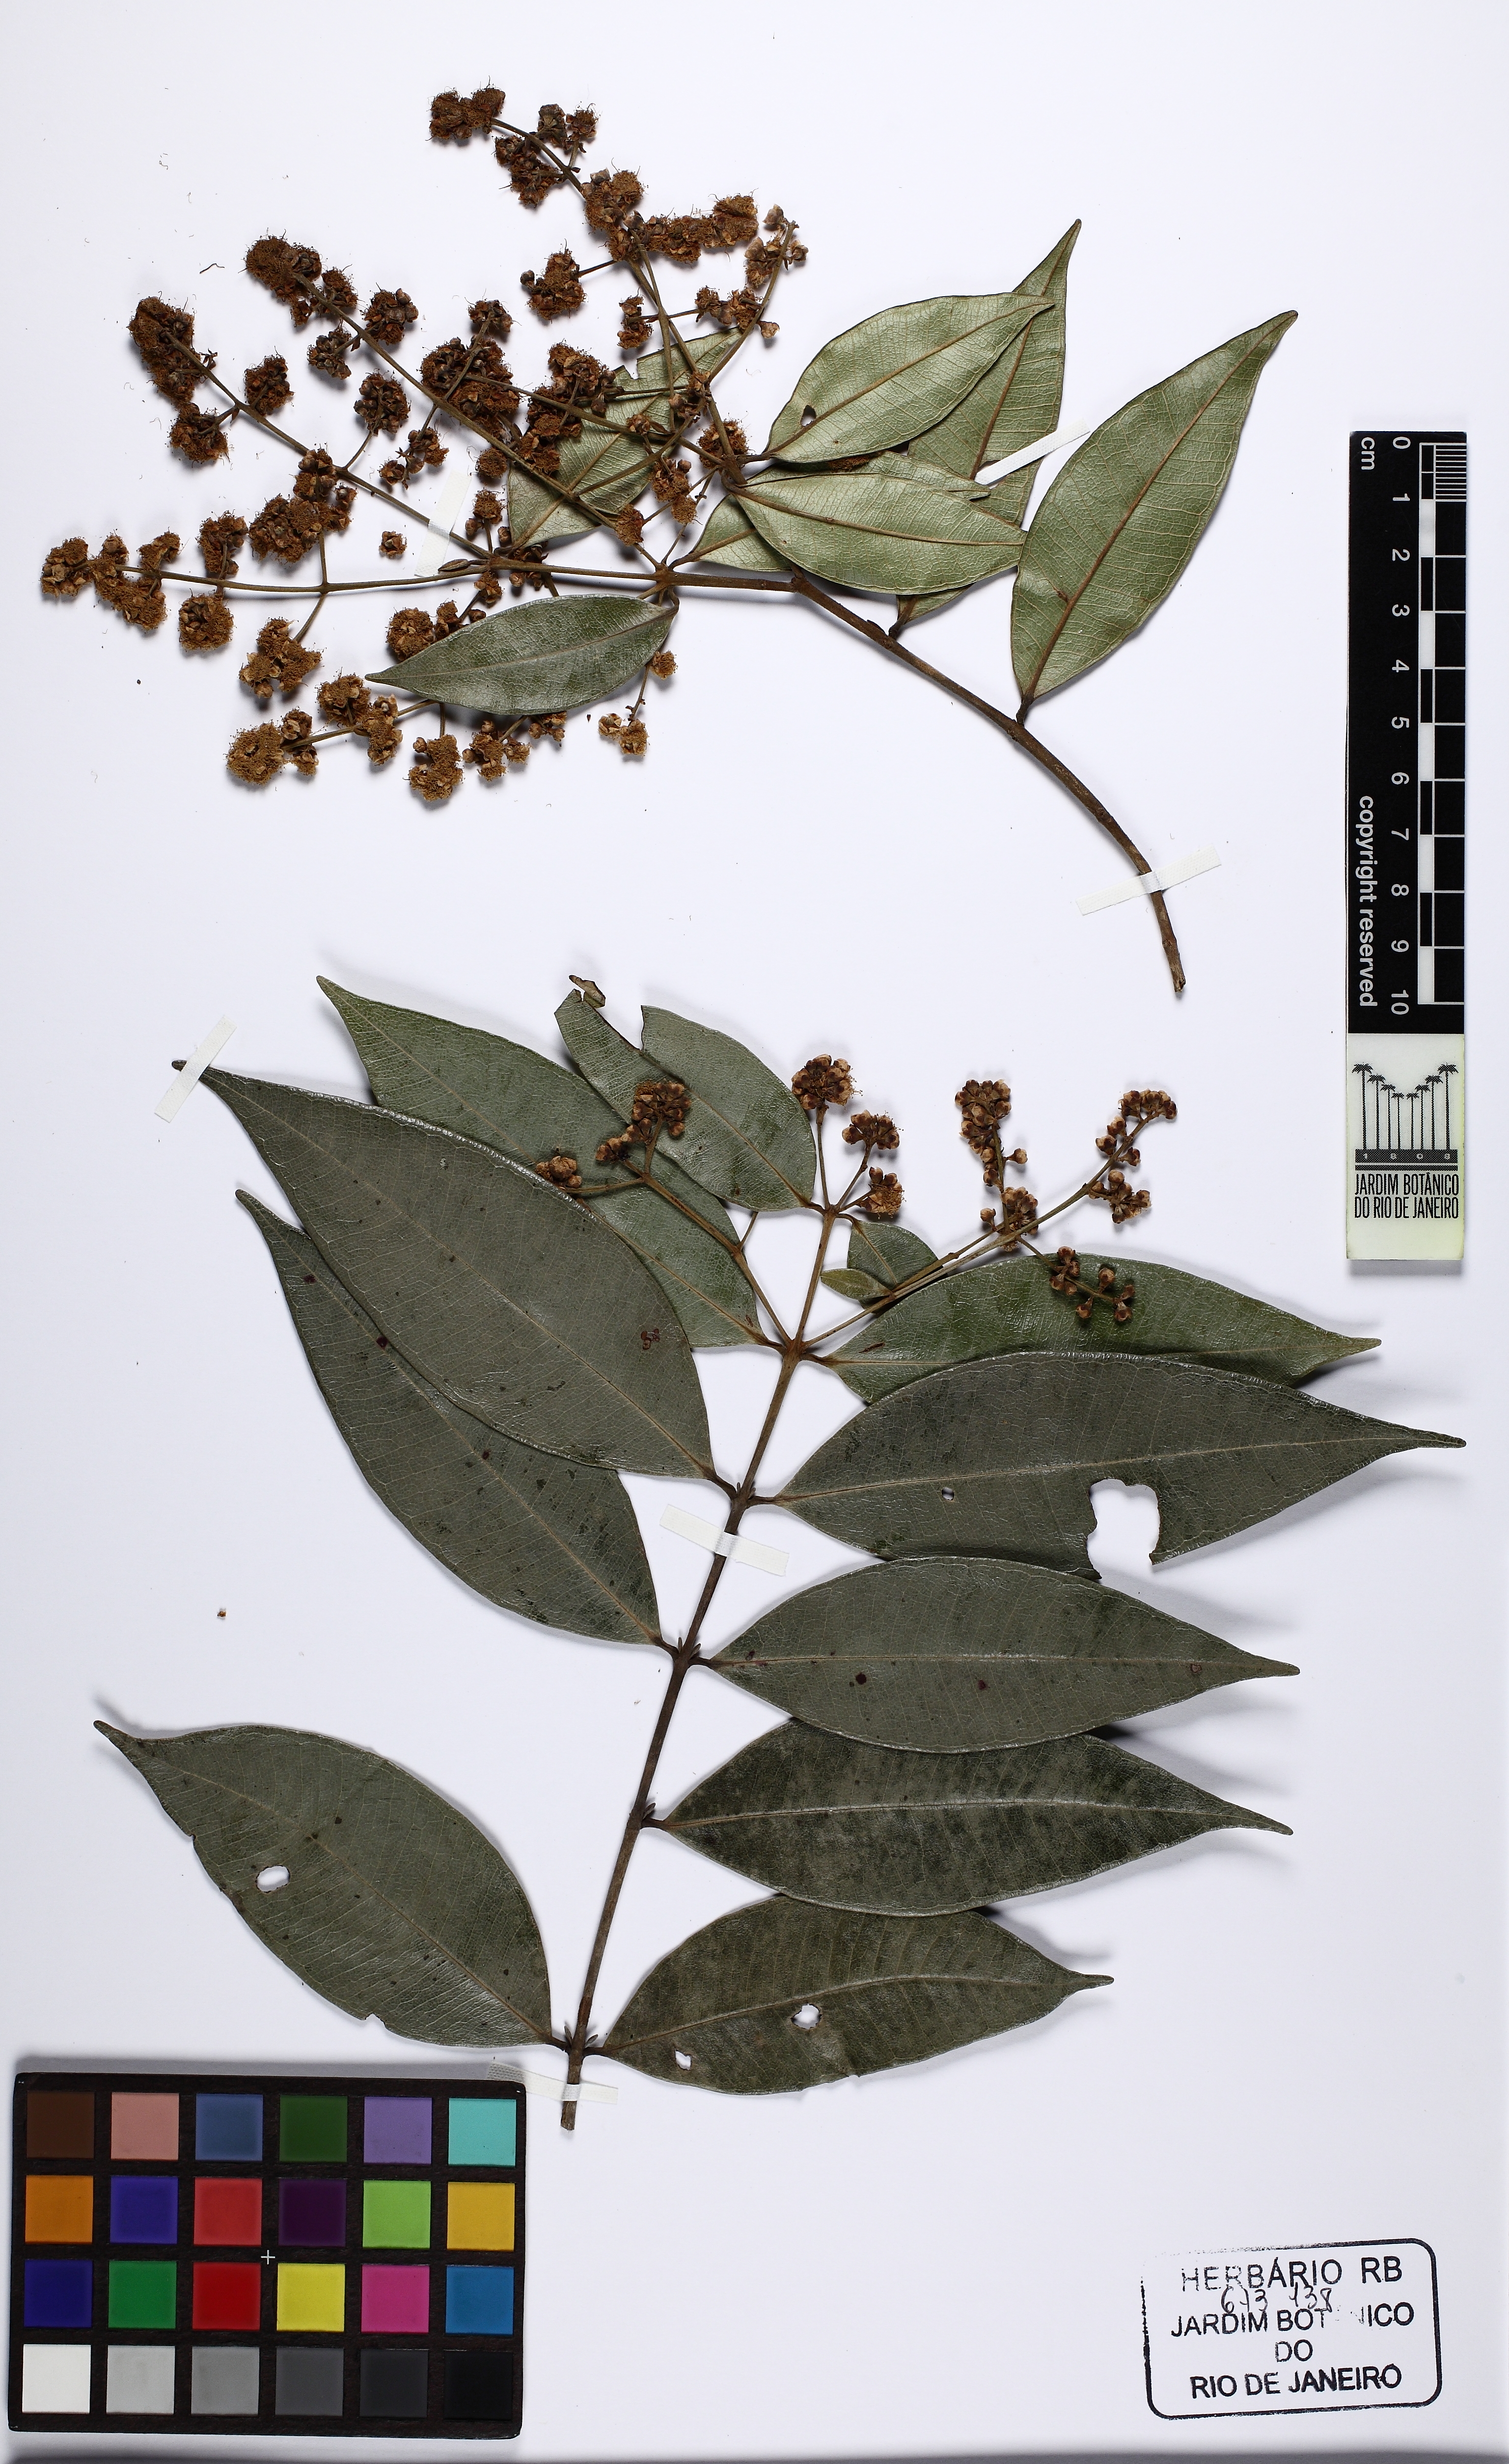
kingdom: Plantae
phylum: Tracheophyta
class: Magnoliopsida
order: Myrtales
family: Myrtaceae
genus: Myrcia
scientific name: Myrcia splendens
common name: Surinam cherry
